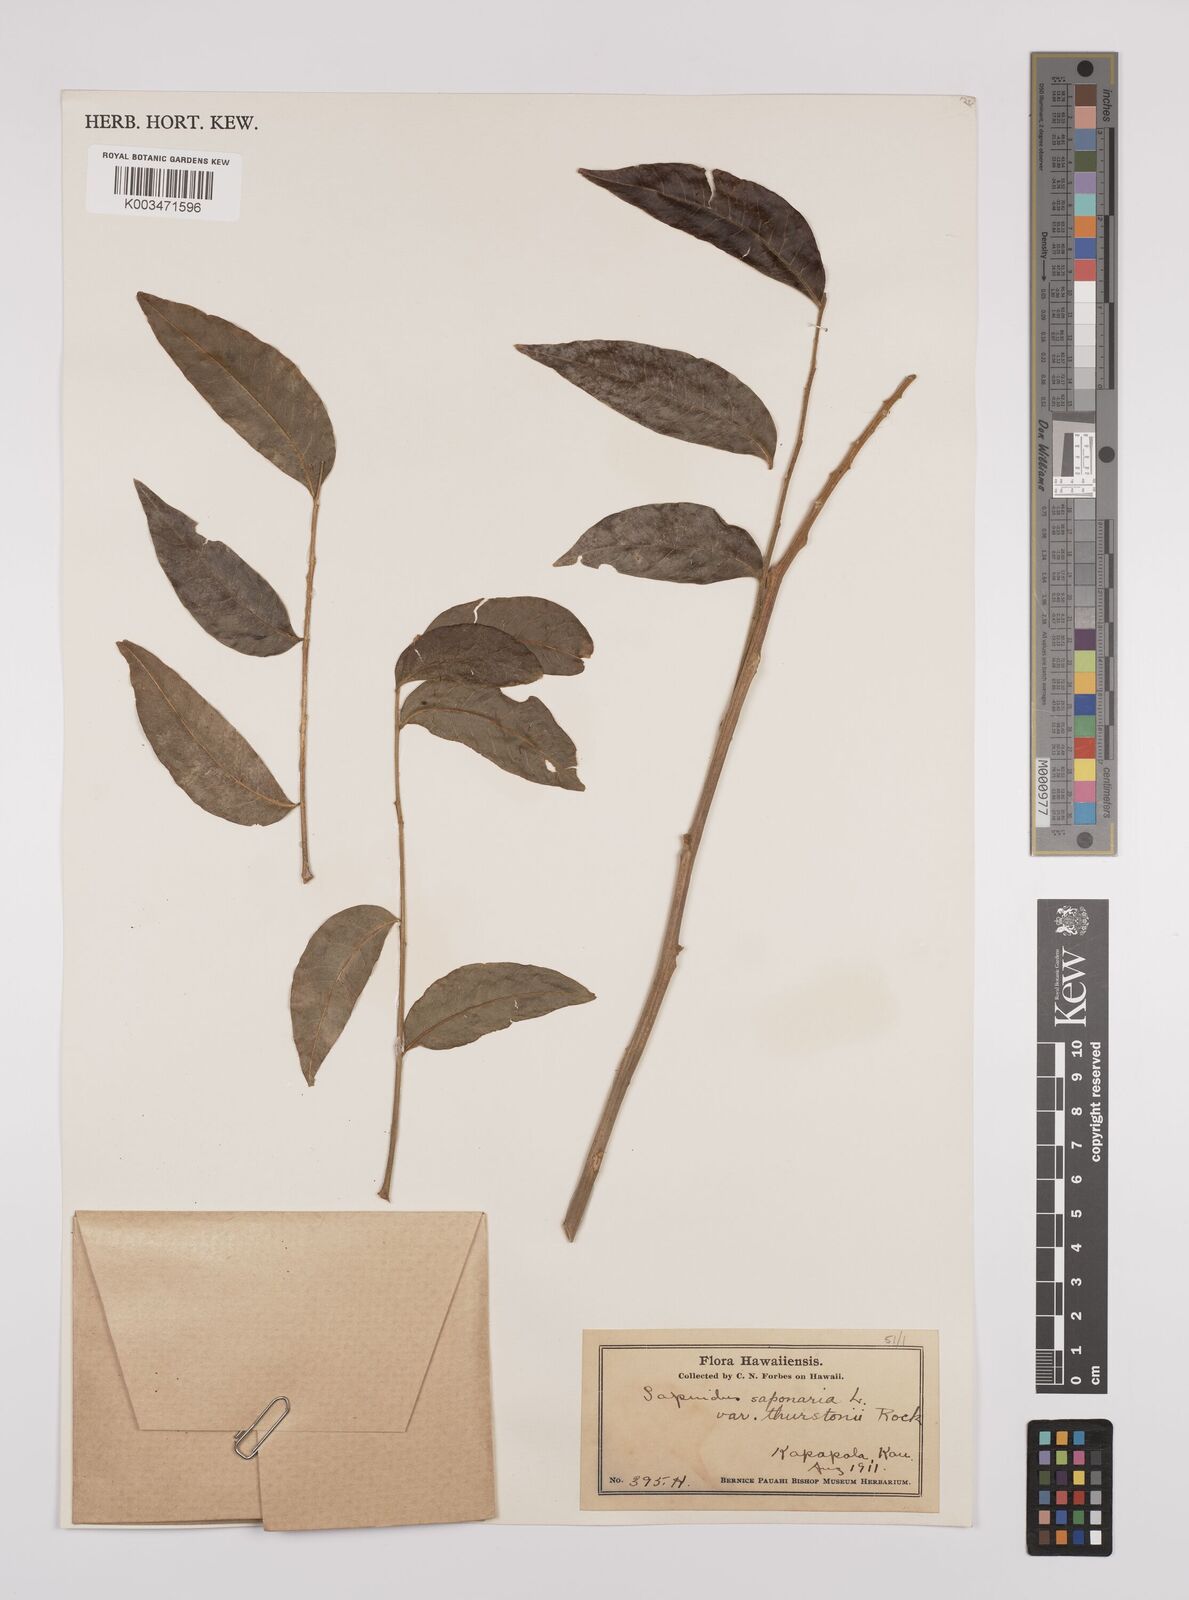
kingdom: Plantae
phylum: Tracheophyta
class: Magnoliopsida
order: Sapindales
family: Sapindaceae
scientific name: Sapindaceae
